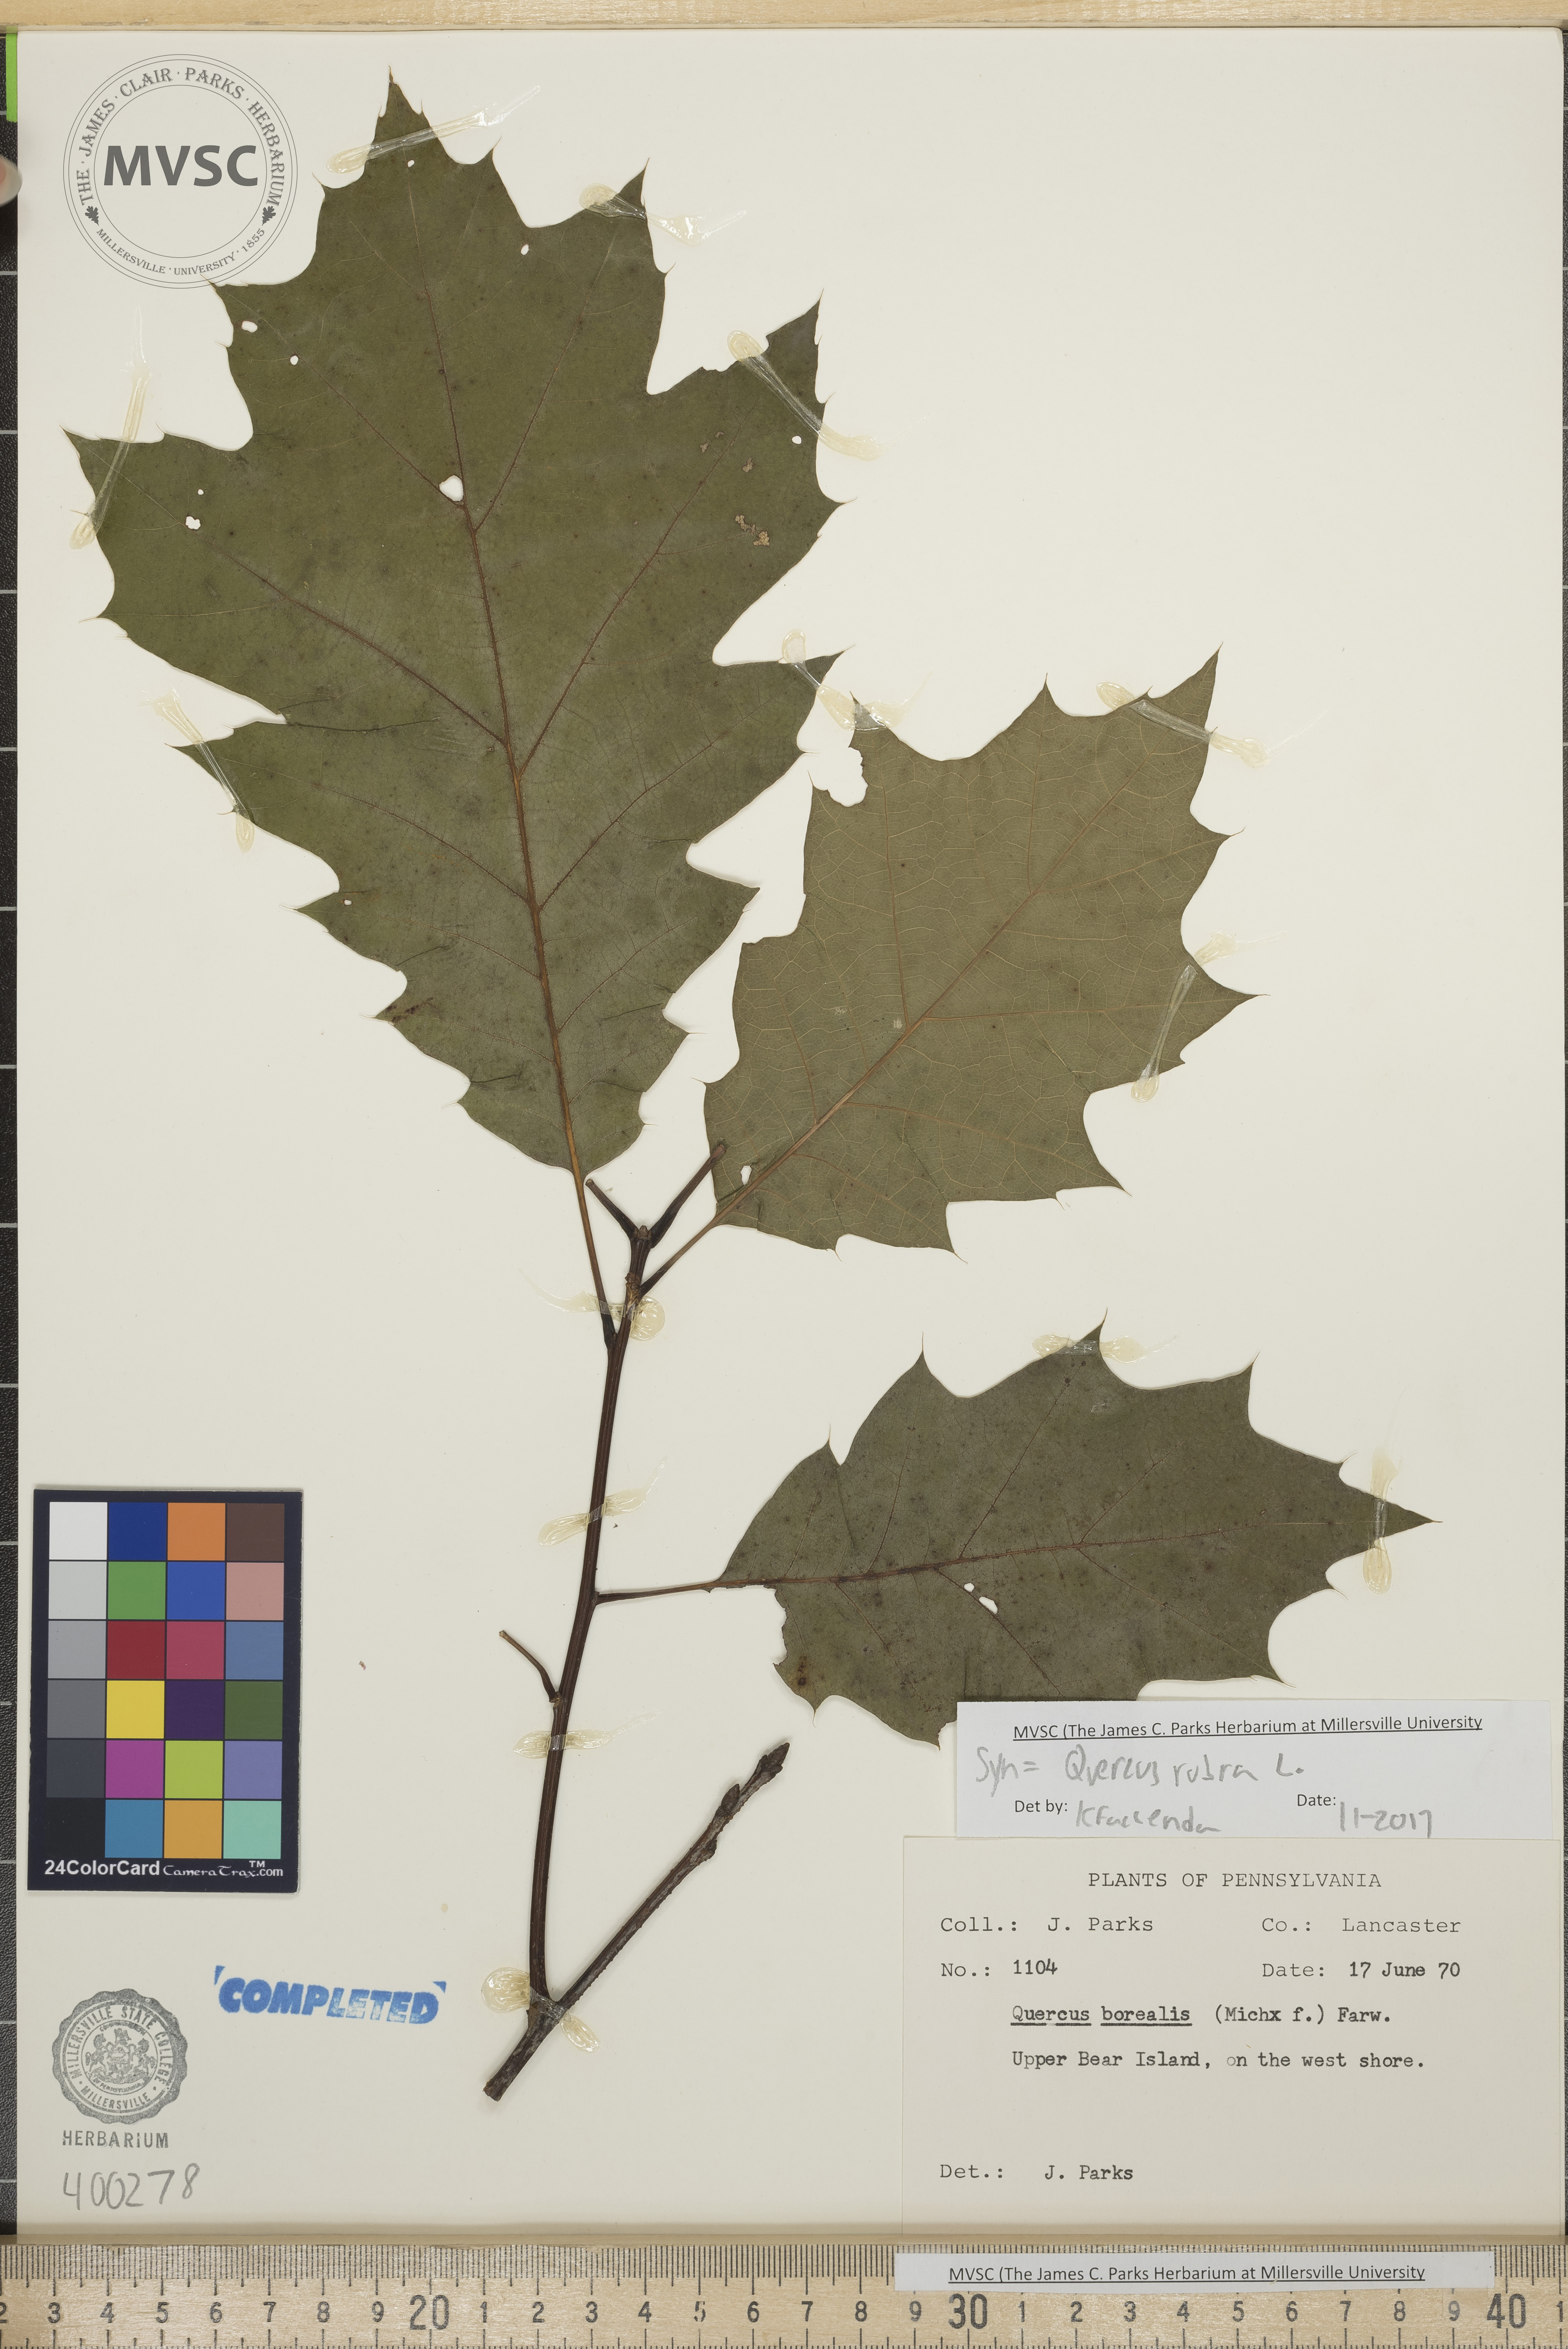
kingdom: Plantae
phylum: Tracheophyta
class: Magnoliopsida
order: Fagales
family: Fagaceae
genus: Quercus
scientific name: Quercus rubra
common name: red oak
